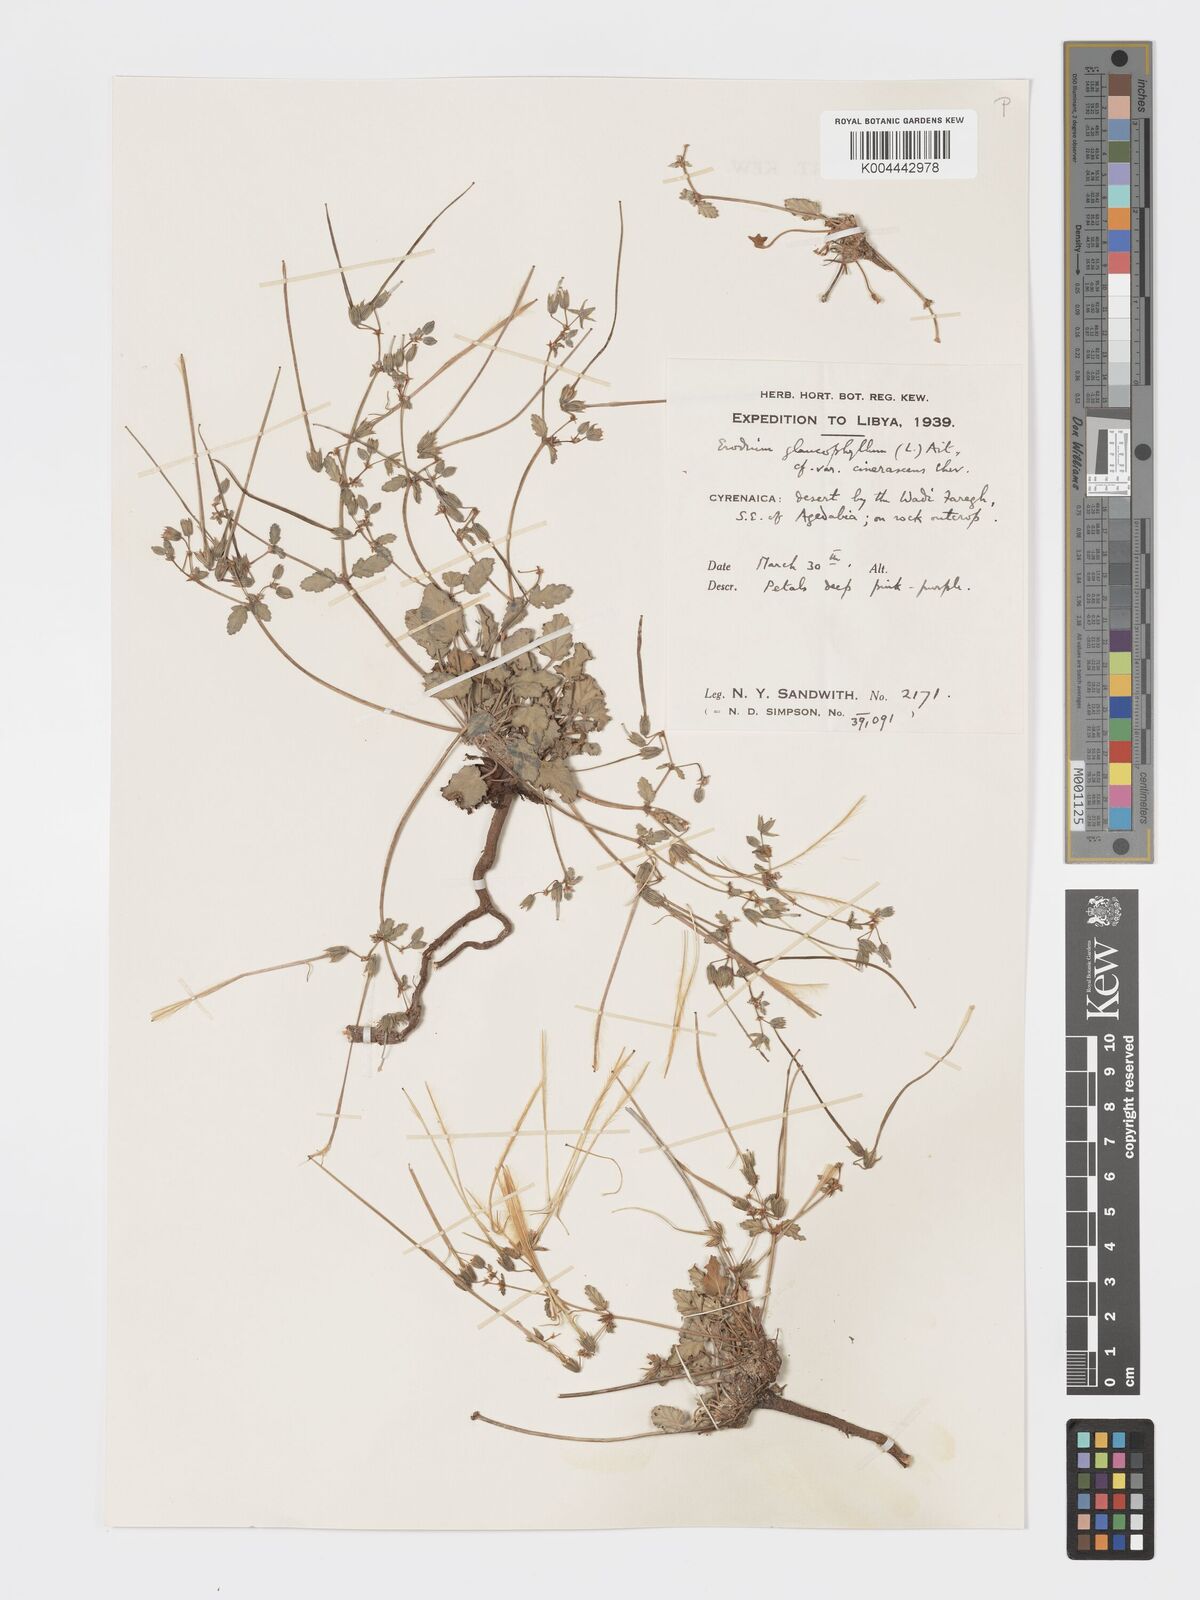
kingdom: Plantae
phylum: Tracheophyta
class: Magnoliopsida
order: Geraniales
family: Geraniaceae
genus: Erodium
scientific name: Erodium glaucophyllum
